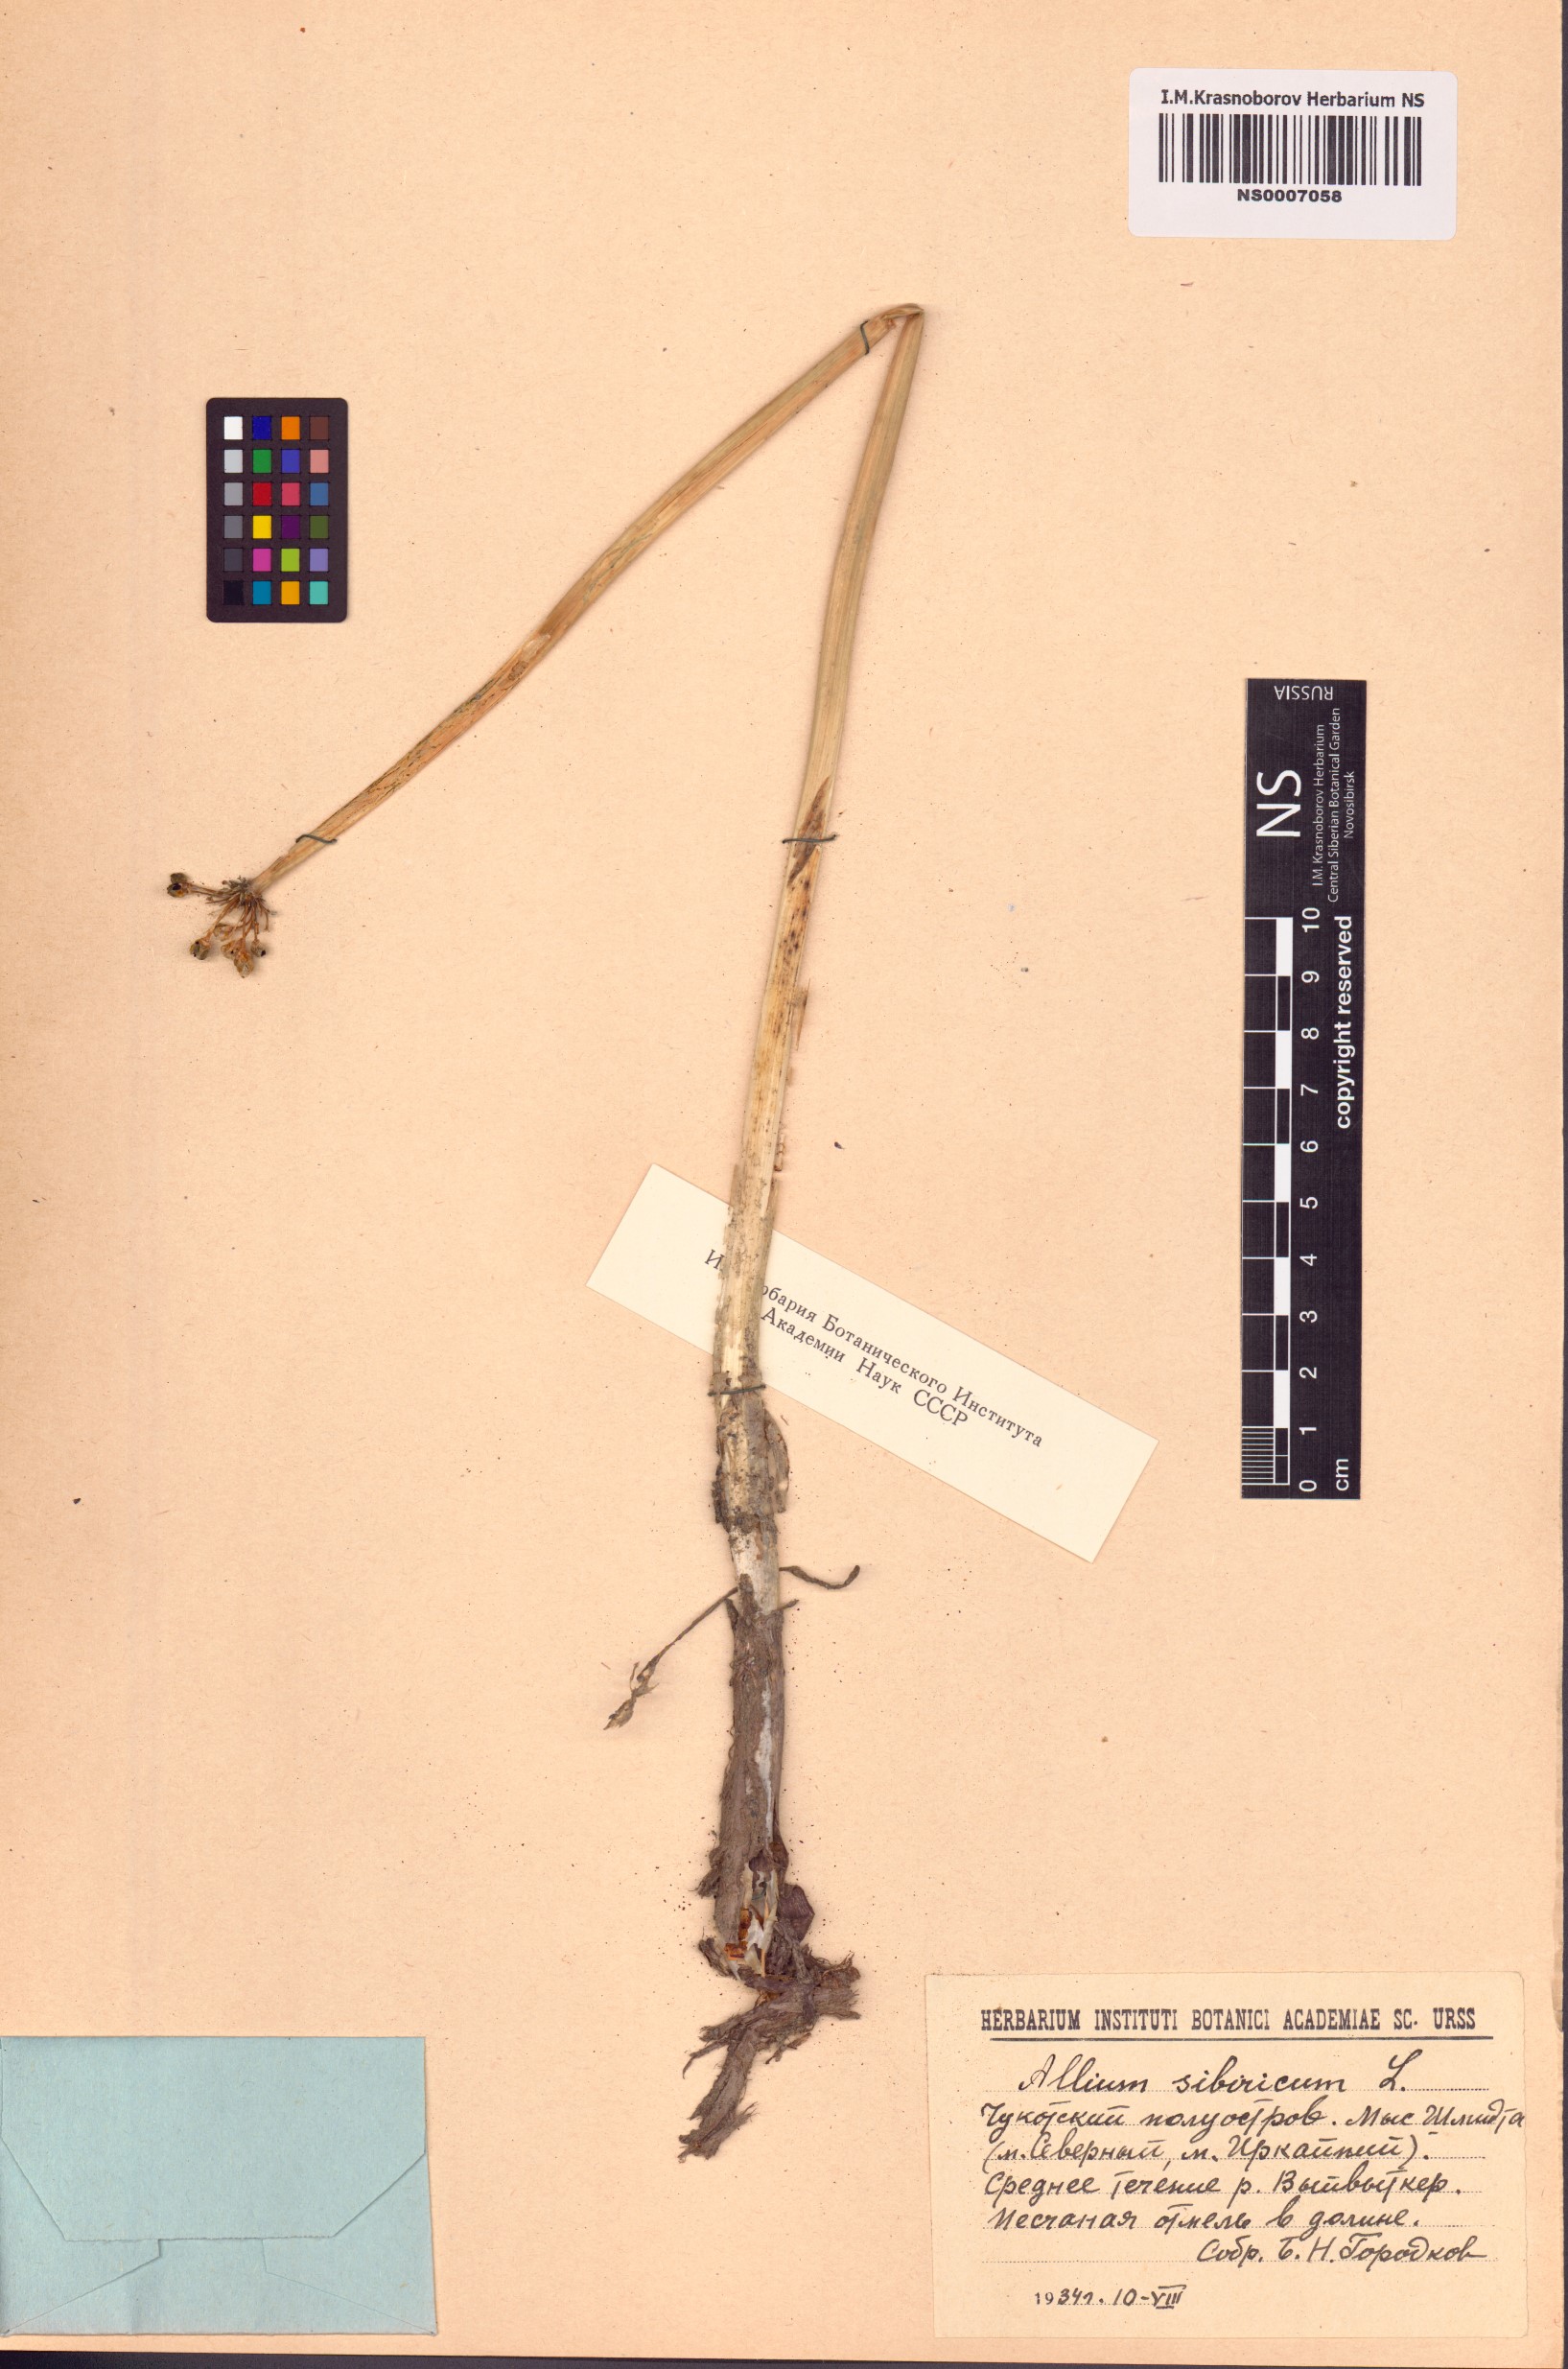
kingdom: Plantae
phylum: Tracheophyta
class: Liliopsida
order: Asparagales
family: Amaryllidaceae
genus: Allium
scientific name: Allium schoenoprasum
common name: Chives
